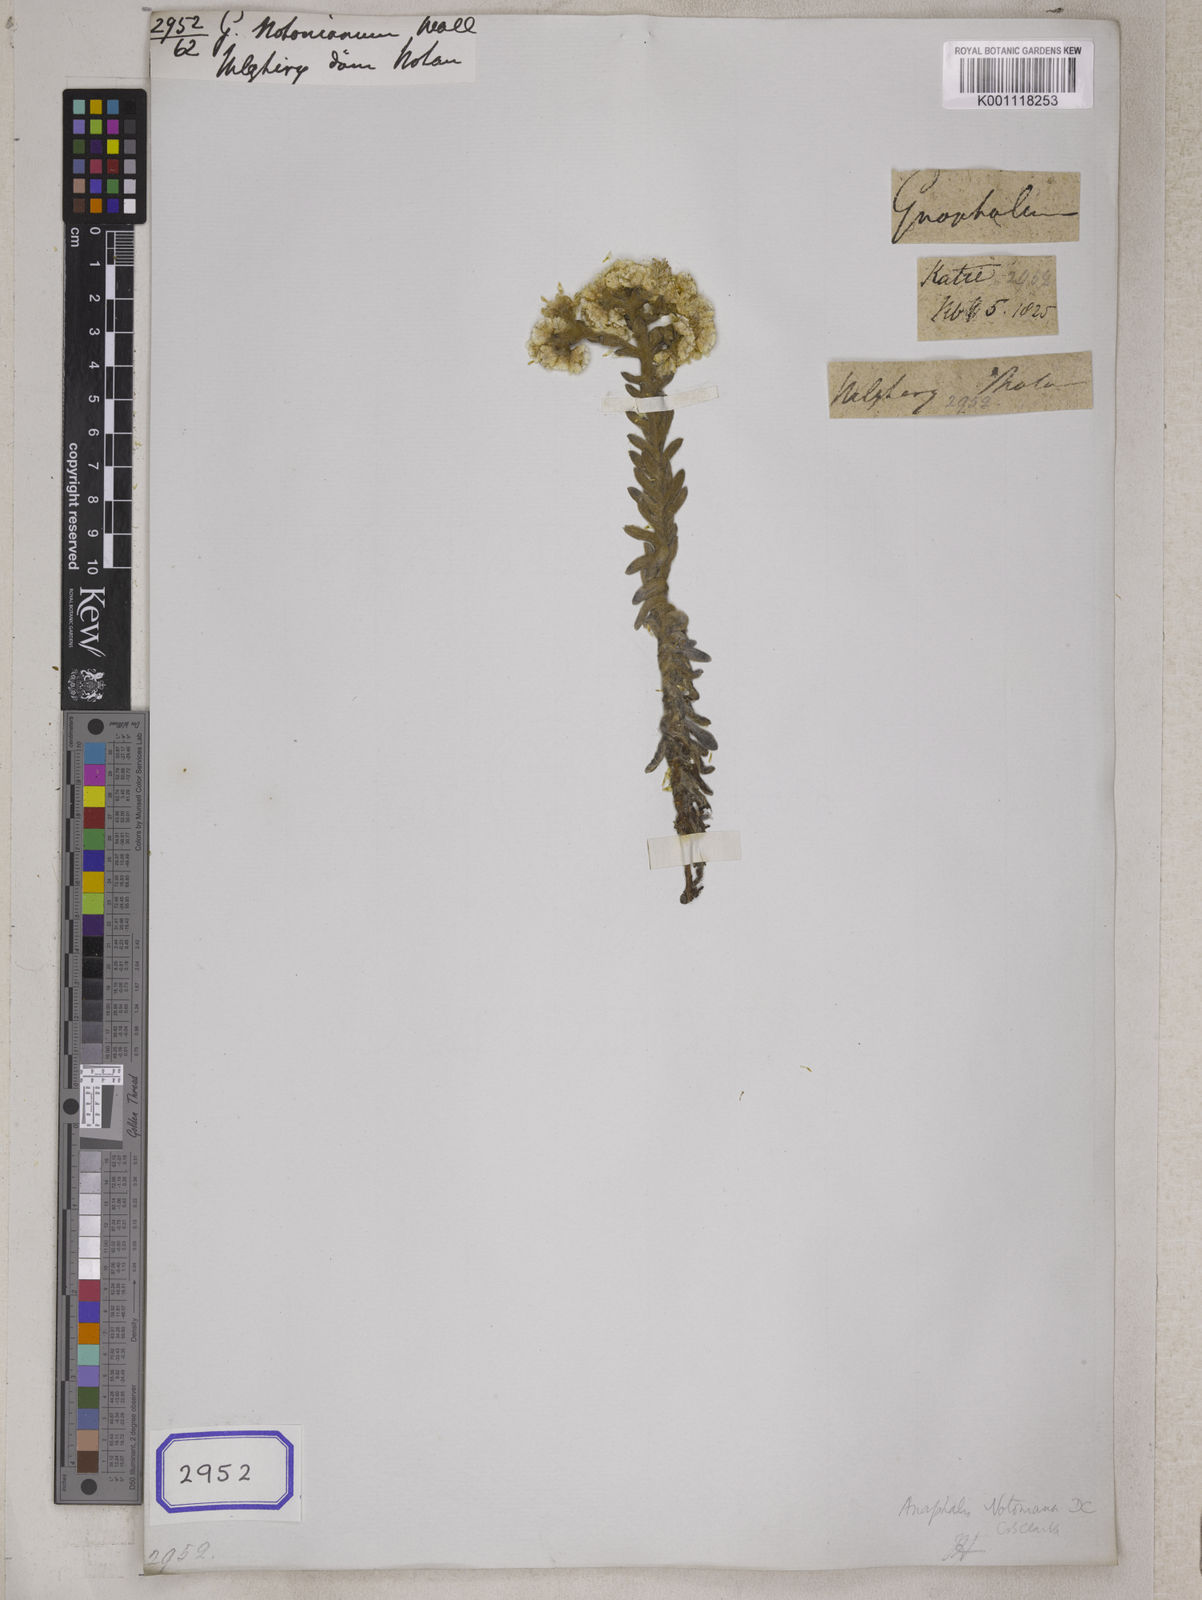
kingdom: Plantae
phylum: Tracheophyta
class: Magnoliopsida
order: Asterales
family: Asteraceae
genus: Anaphalis
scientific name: Anaphalis notoniana
